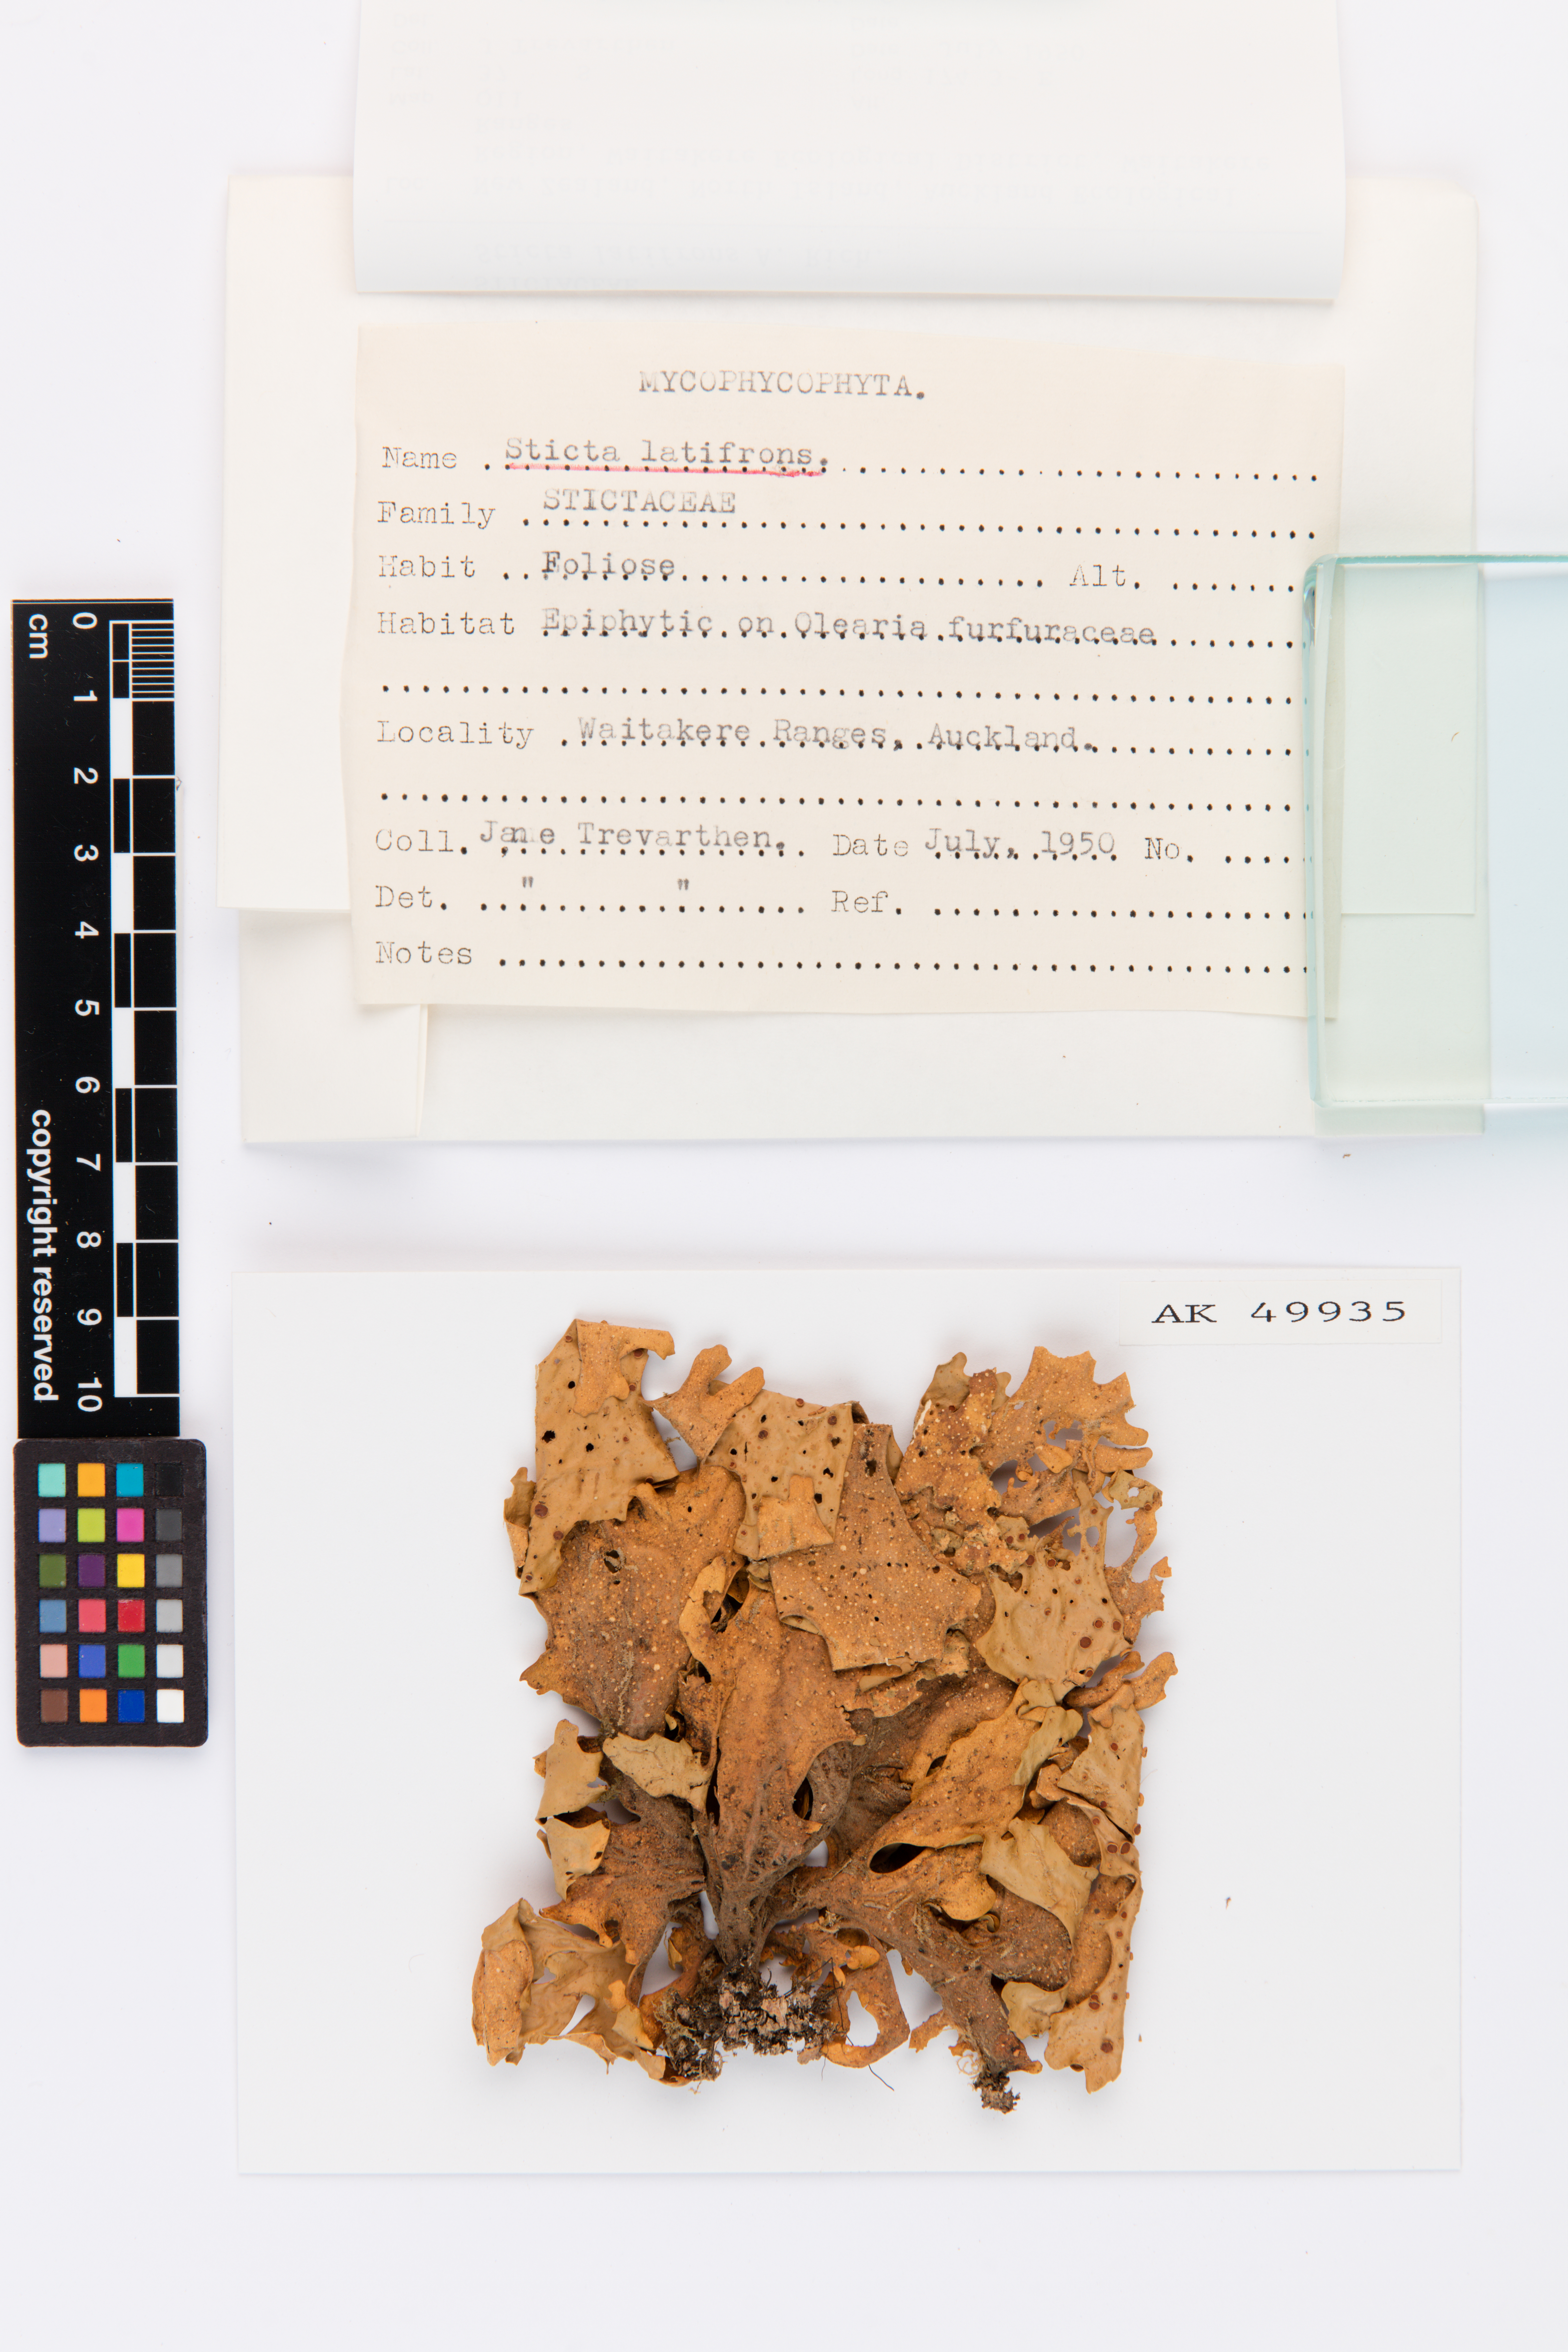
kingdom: Fungi
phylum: Ascomycota
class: Lecanoromycetes
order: Peltigerales
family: Lobariaceae
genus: Sticta
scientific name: Sticta latifrons
